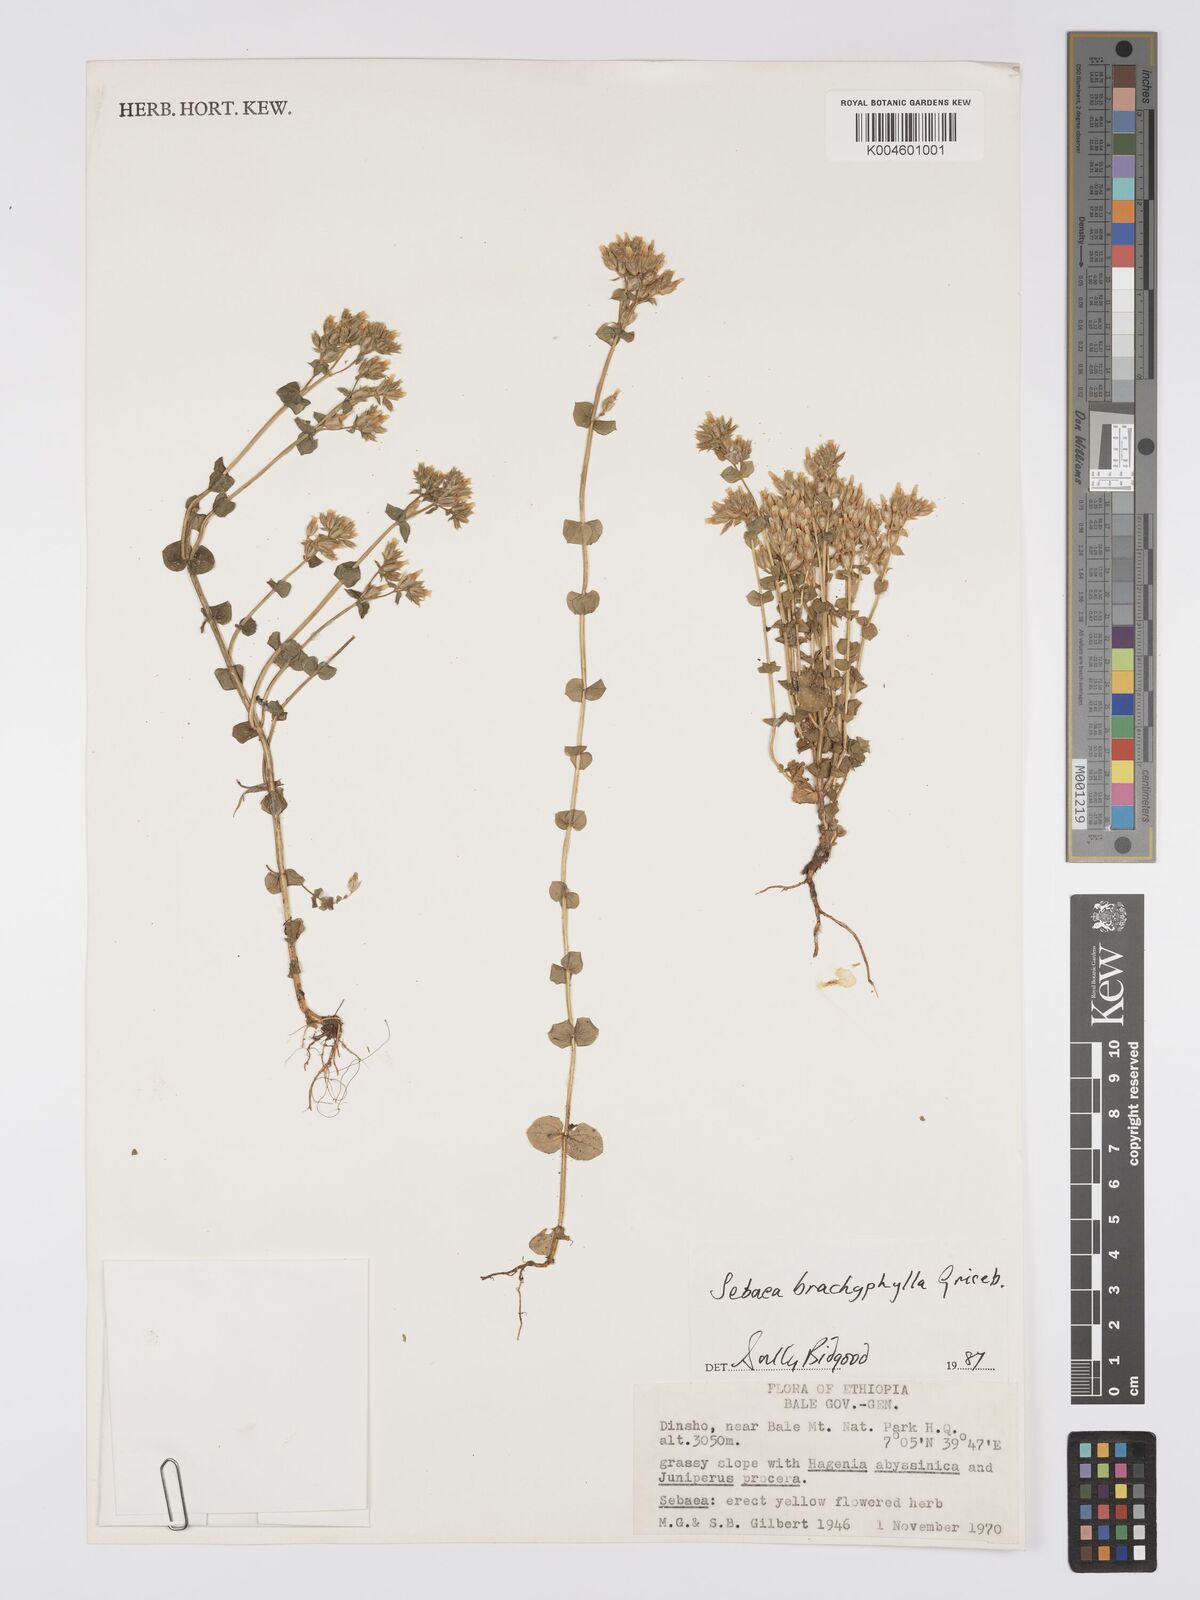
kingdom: Plantae
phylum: Tracheophyta
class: Magnoliopsida
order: Gentianales
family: Gentianaceae
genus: Sebaea
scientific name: Sebaea brachyphylla
